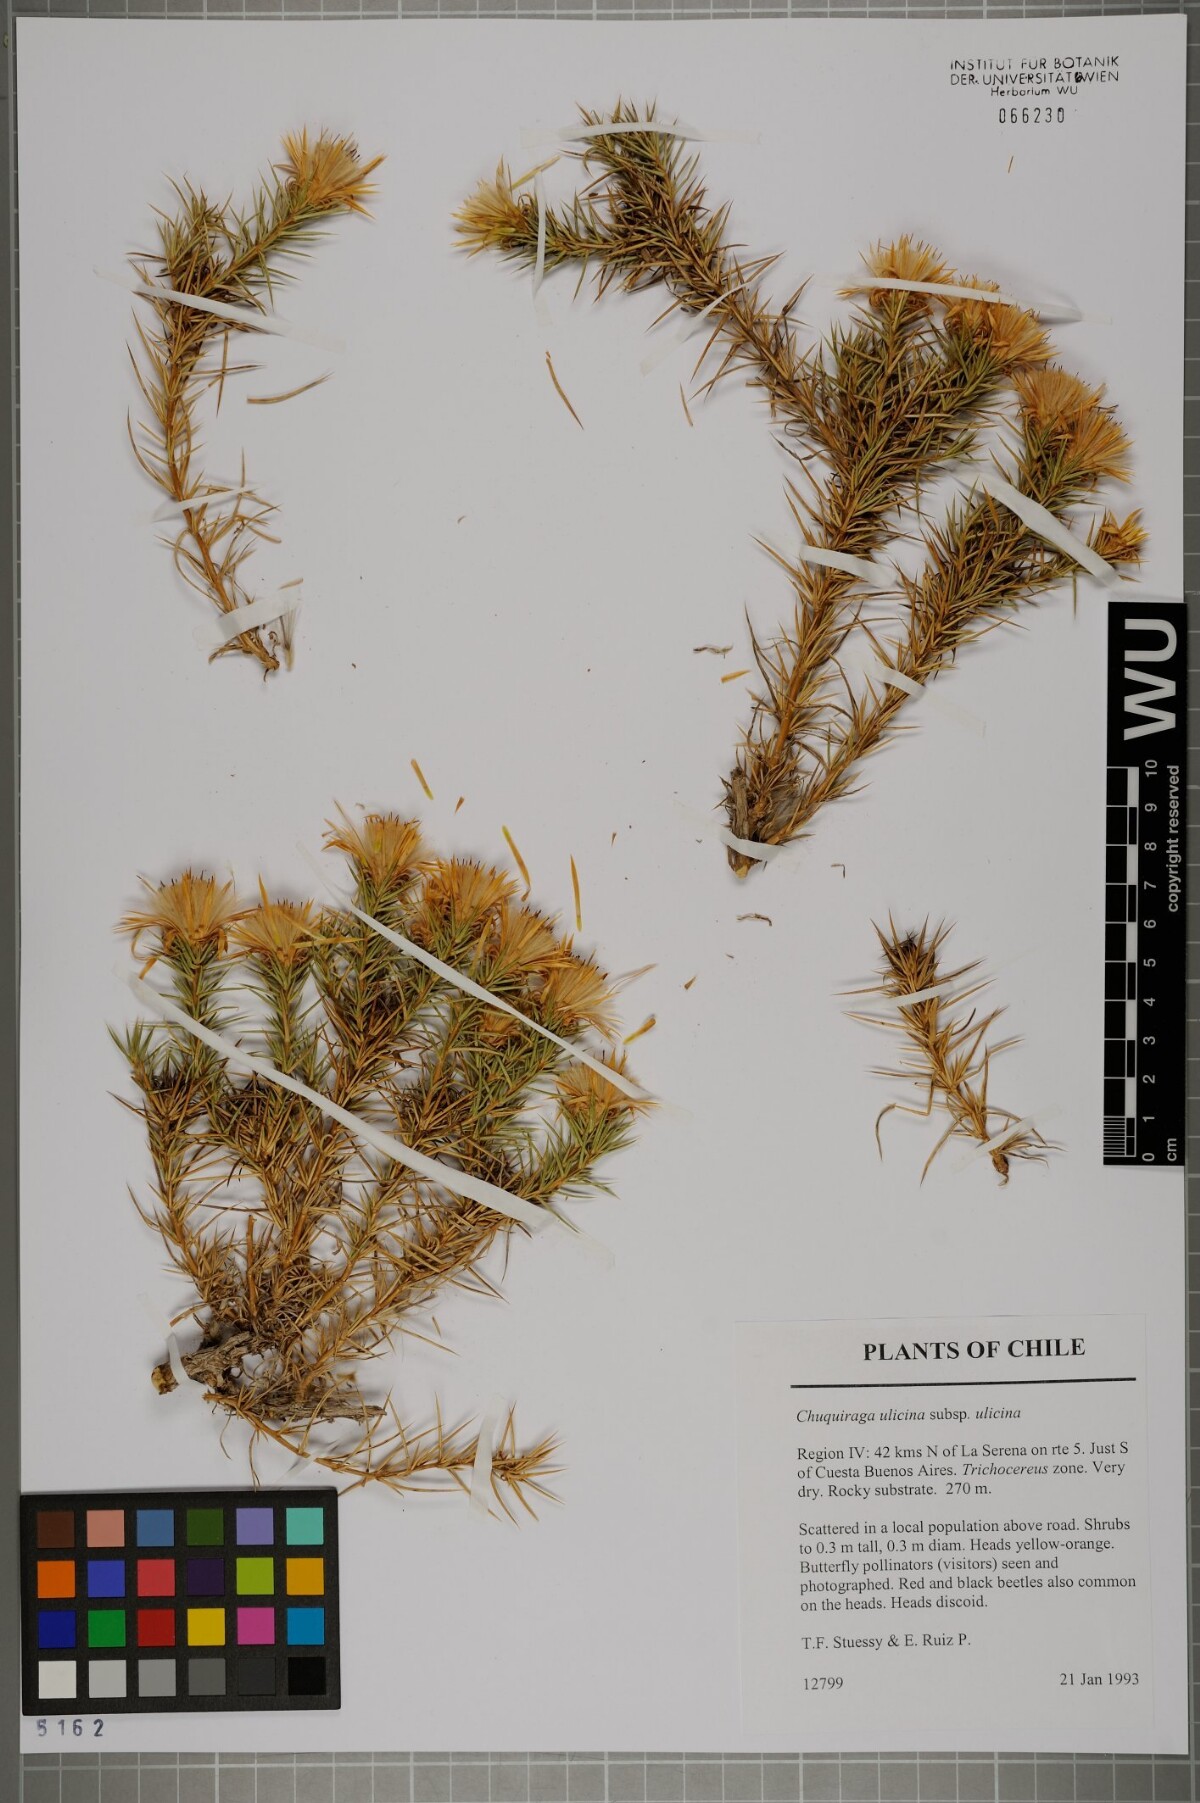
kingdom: Plantae
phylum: Tracheophyta
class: Magnoliopsida
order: Asterales
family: Asteraceae
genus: Chuquiraga
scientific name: Chuquiraga ulicina
